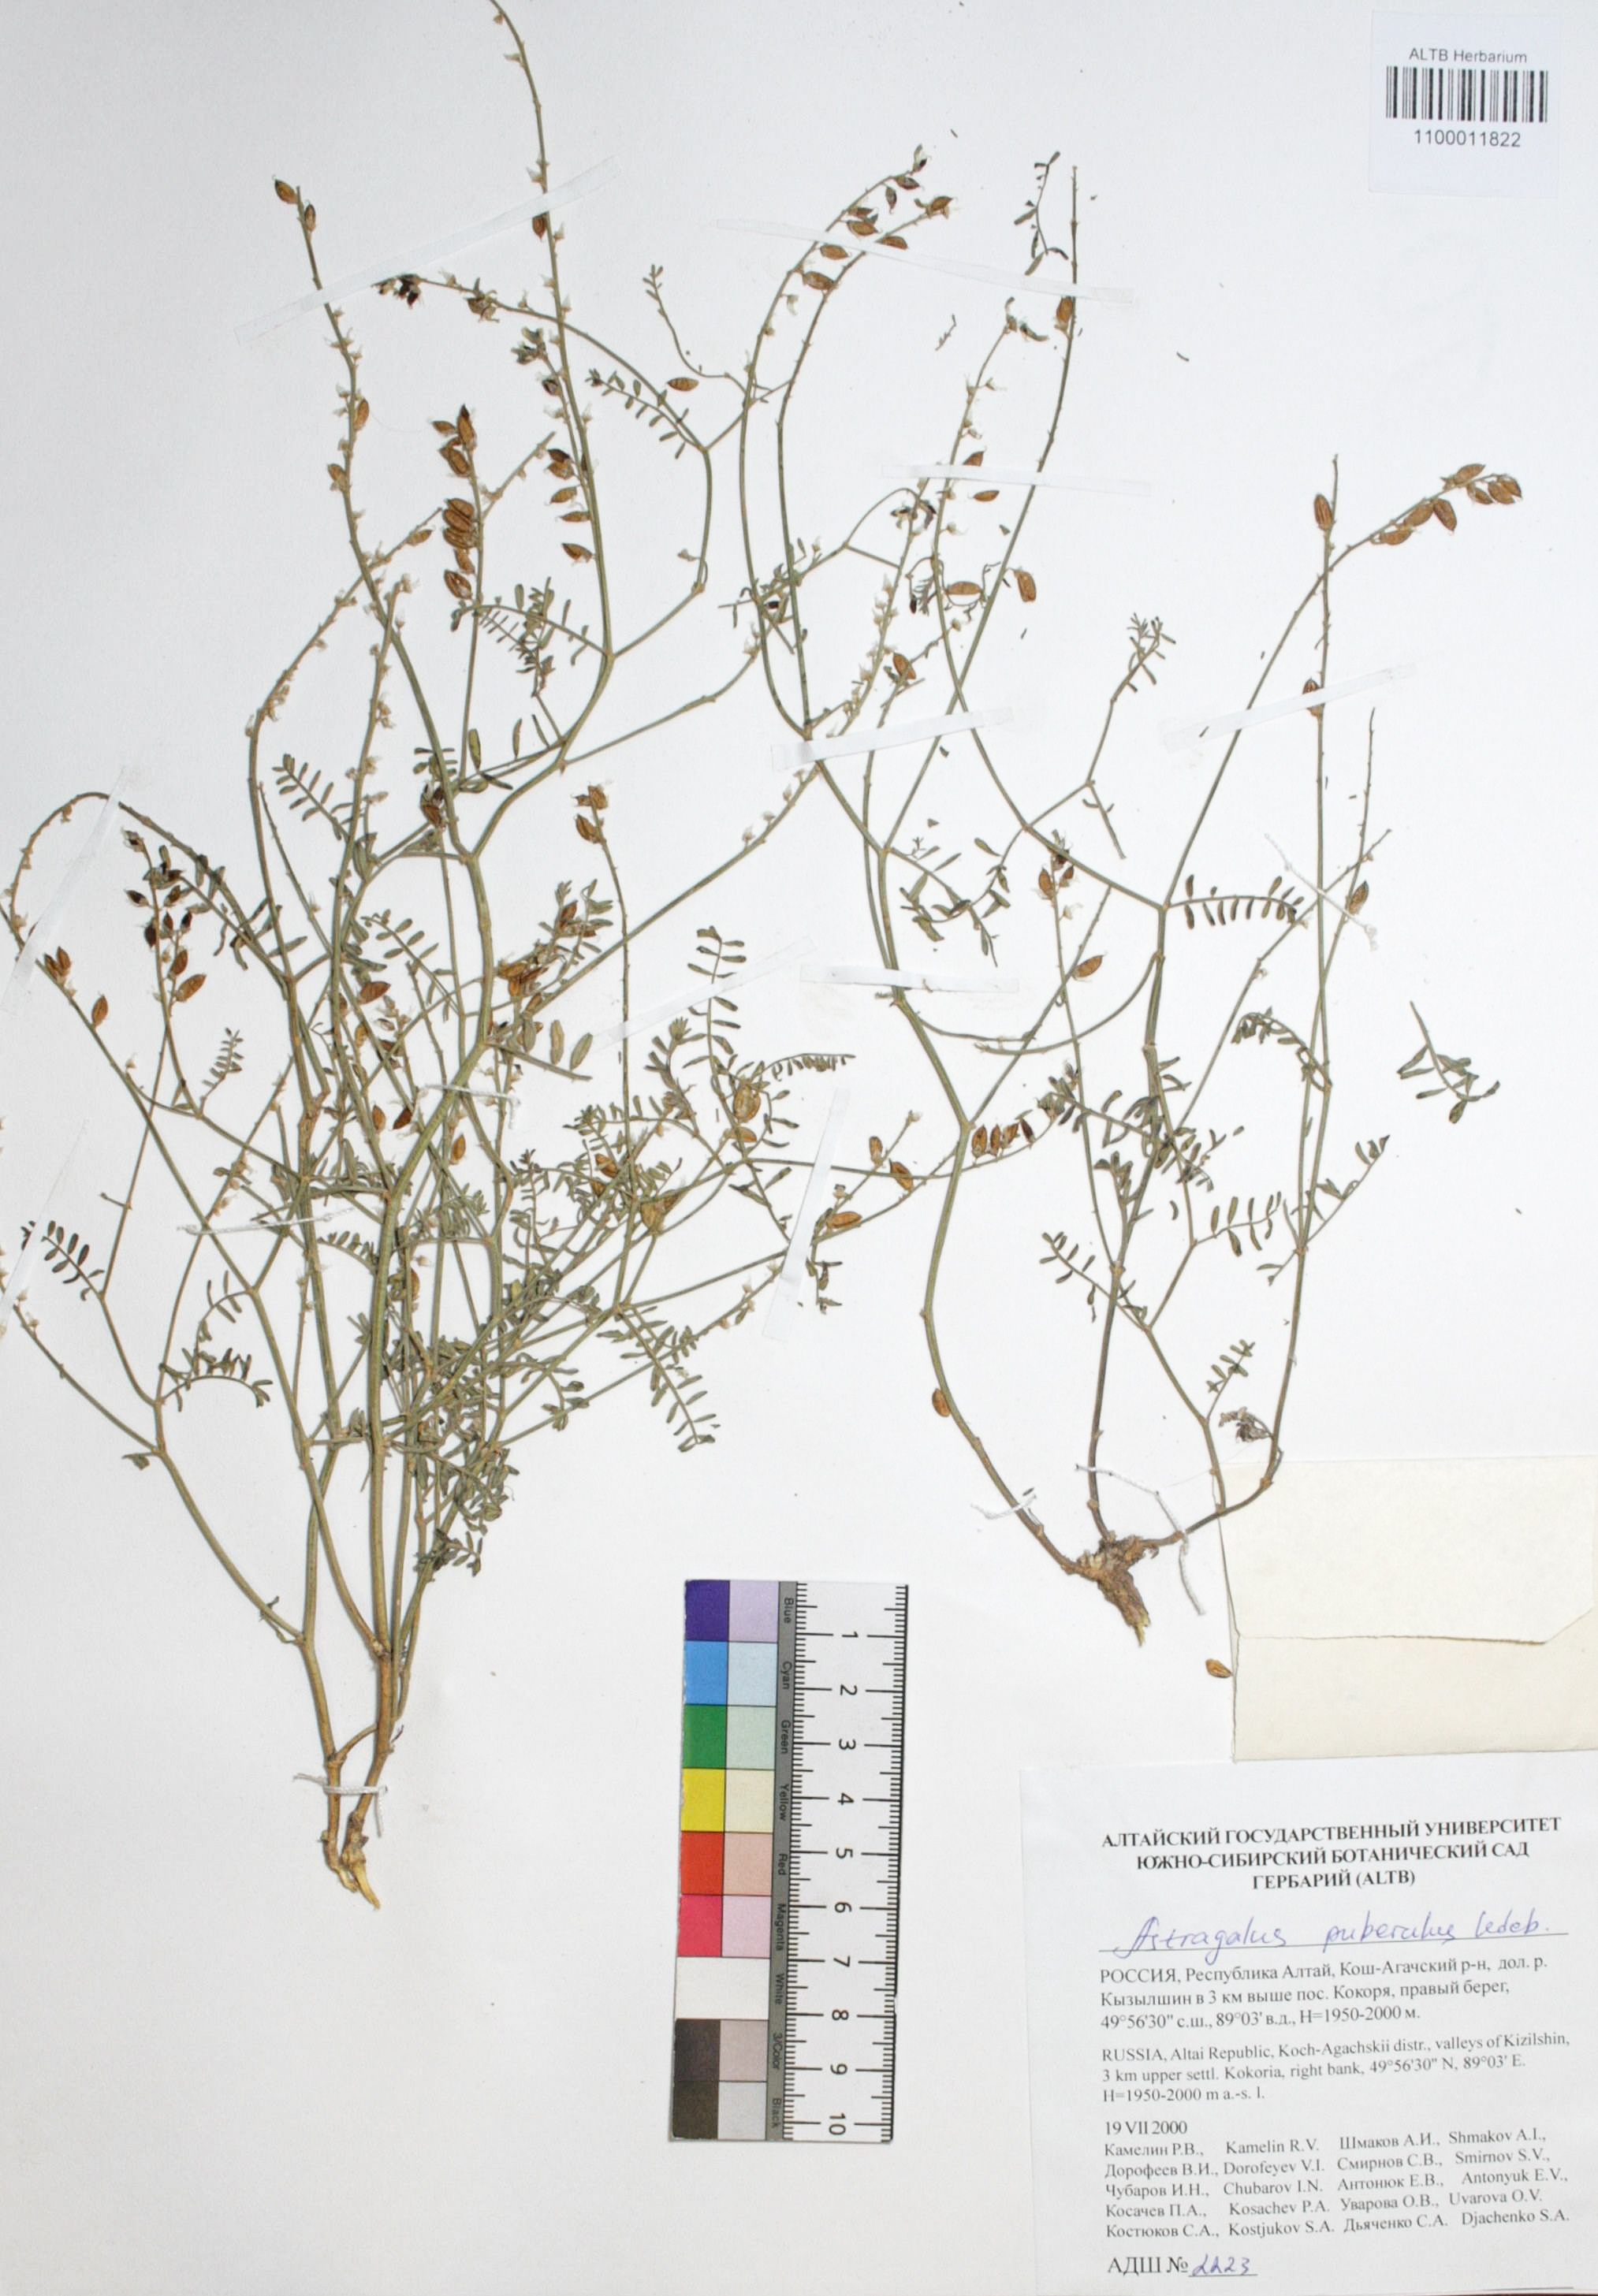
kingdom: Plantae
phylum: Tracheophyta
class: Magnoliopsida
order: Fabales
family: Fabaceae
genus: Astragalus
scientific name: Astragalus puberulus
